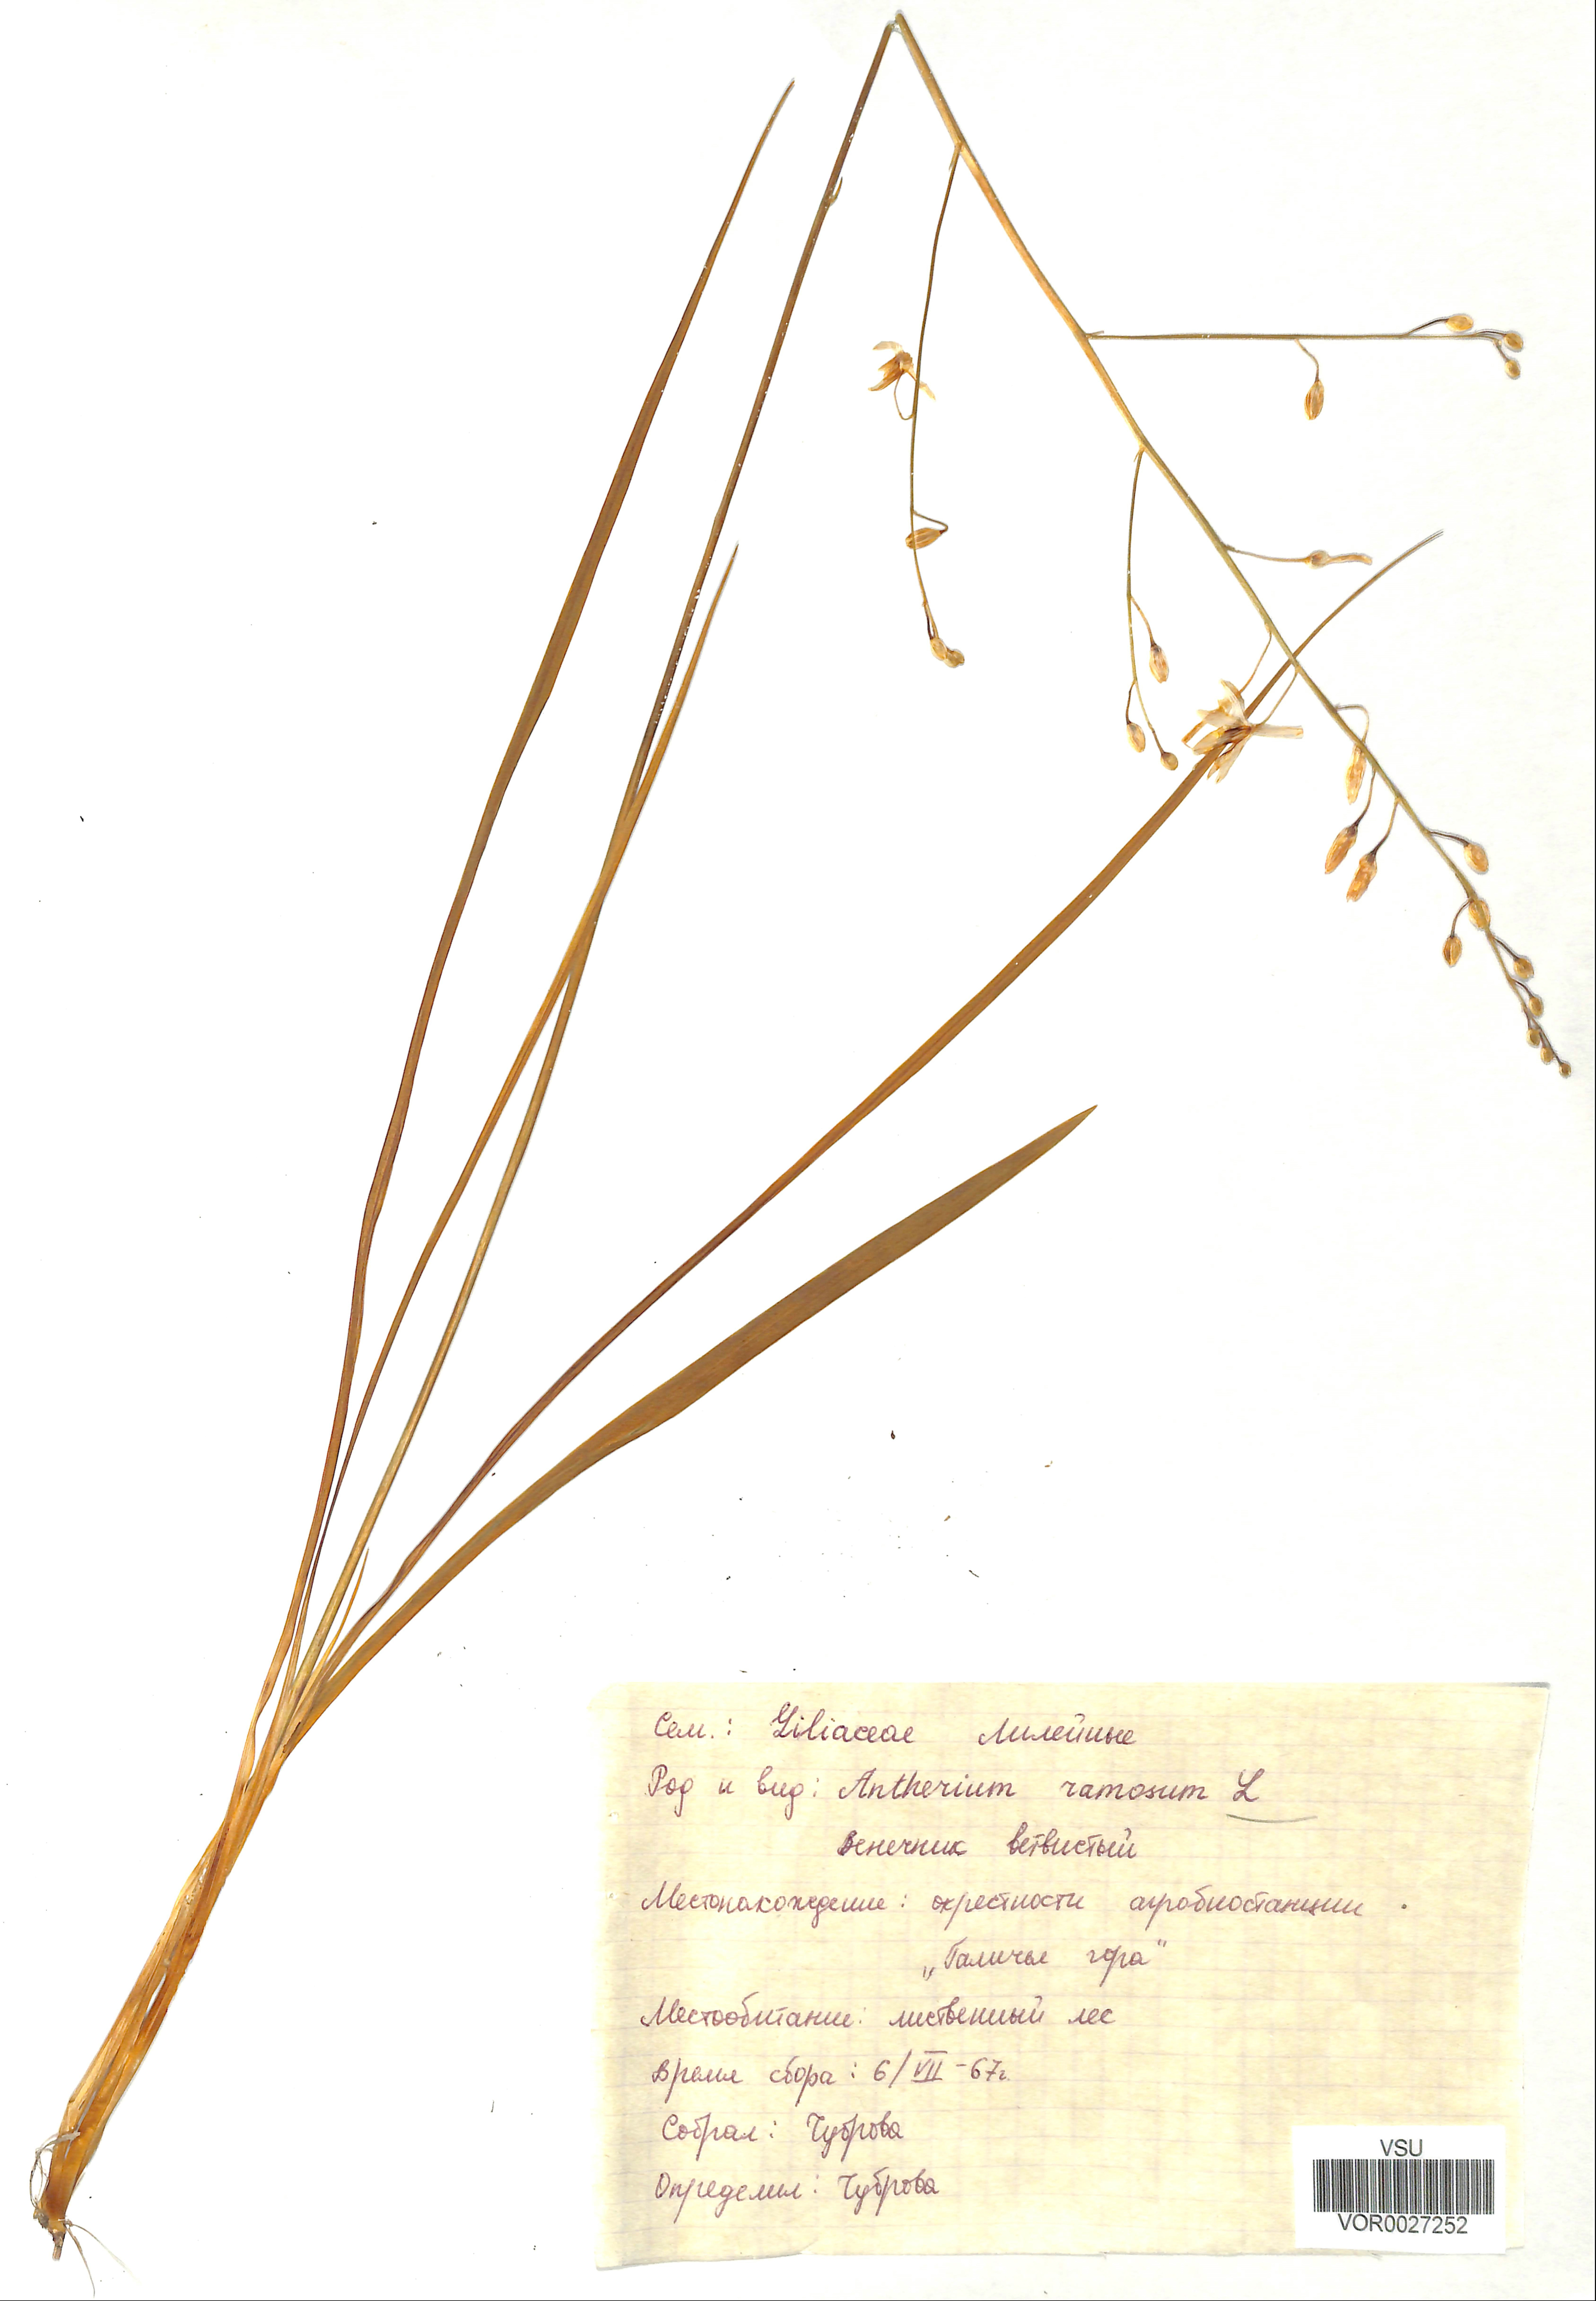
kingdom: Plantae
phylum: Tracheophyta
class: Liliopsida
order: Asparagales
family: Asparagaceae
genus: Anthericum
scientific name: Anthericum ramosum
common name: Branched st. bernard's-lily
